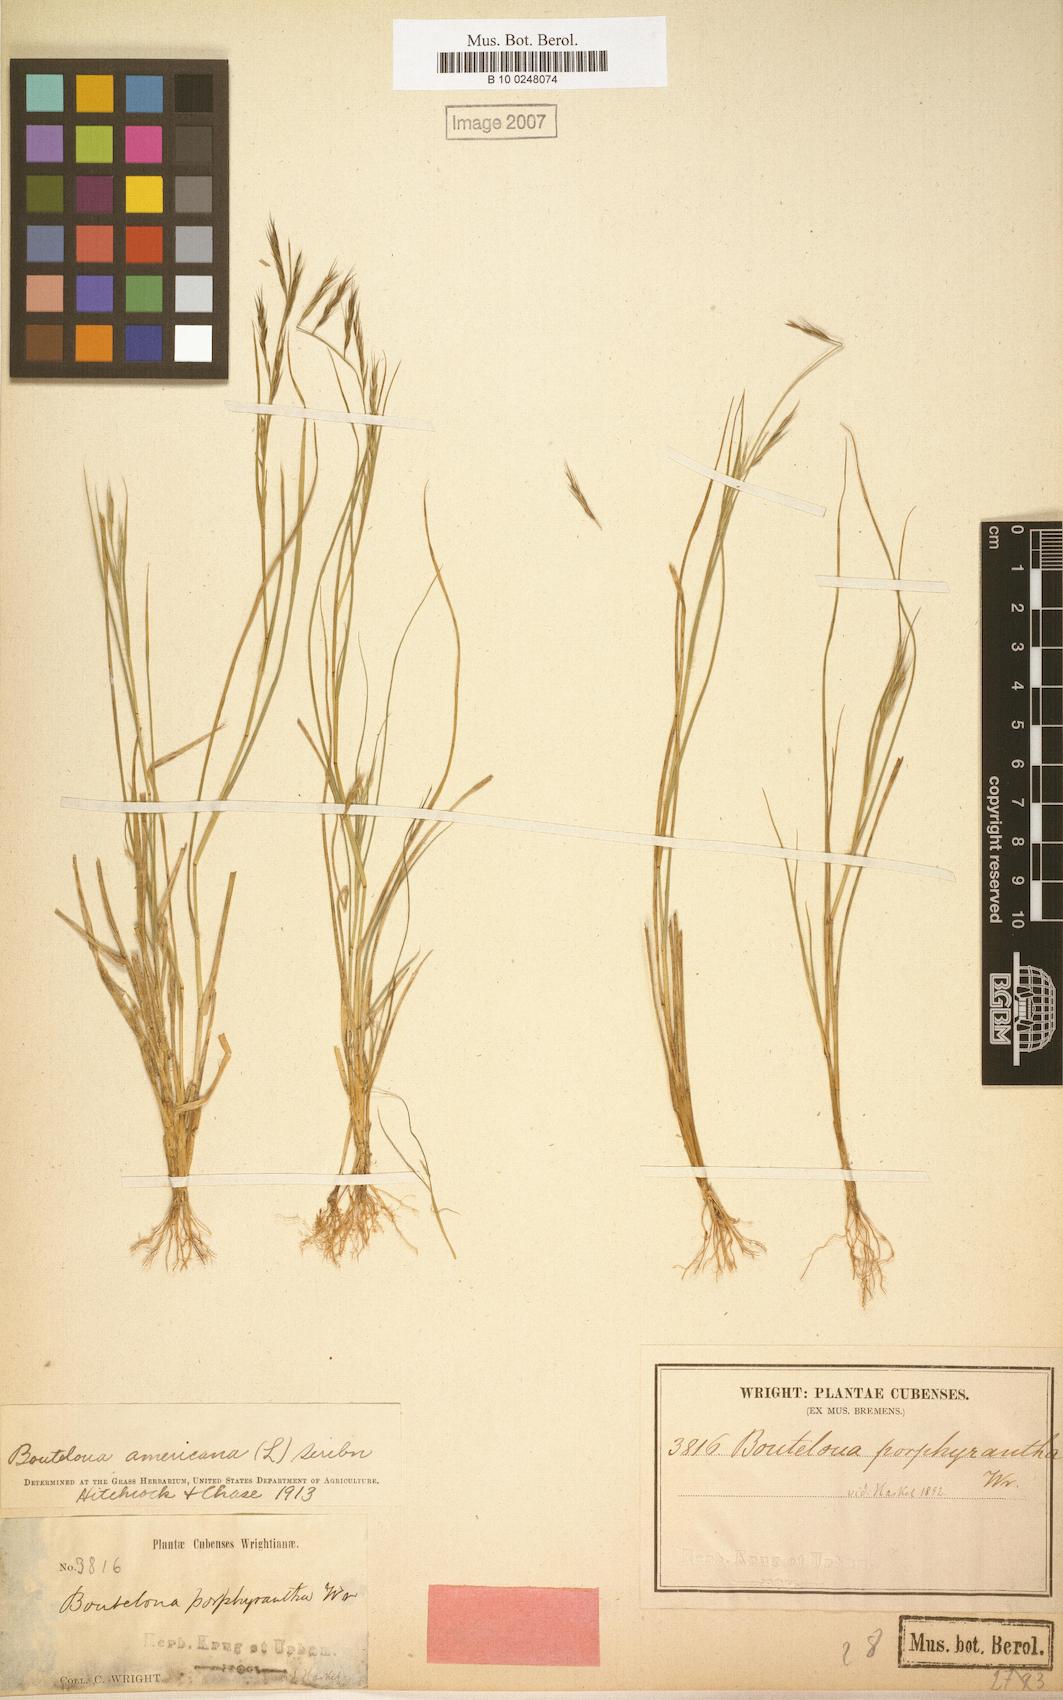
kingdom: Plantae
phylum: Tracheophyta
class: Liliopsida
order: Poales
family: Poaceae
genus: Bouteloua
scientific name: Bouteloua americana
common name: Mule grass
